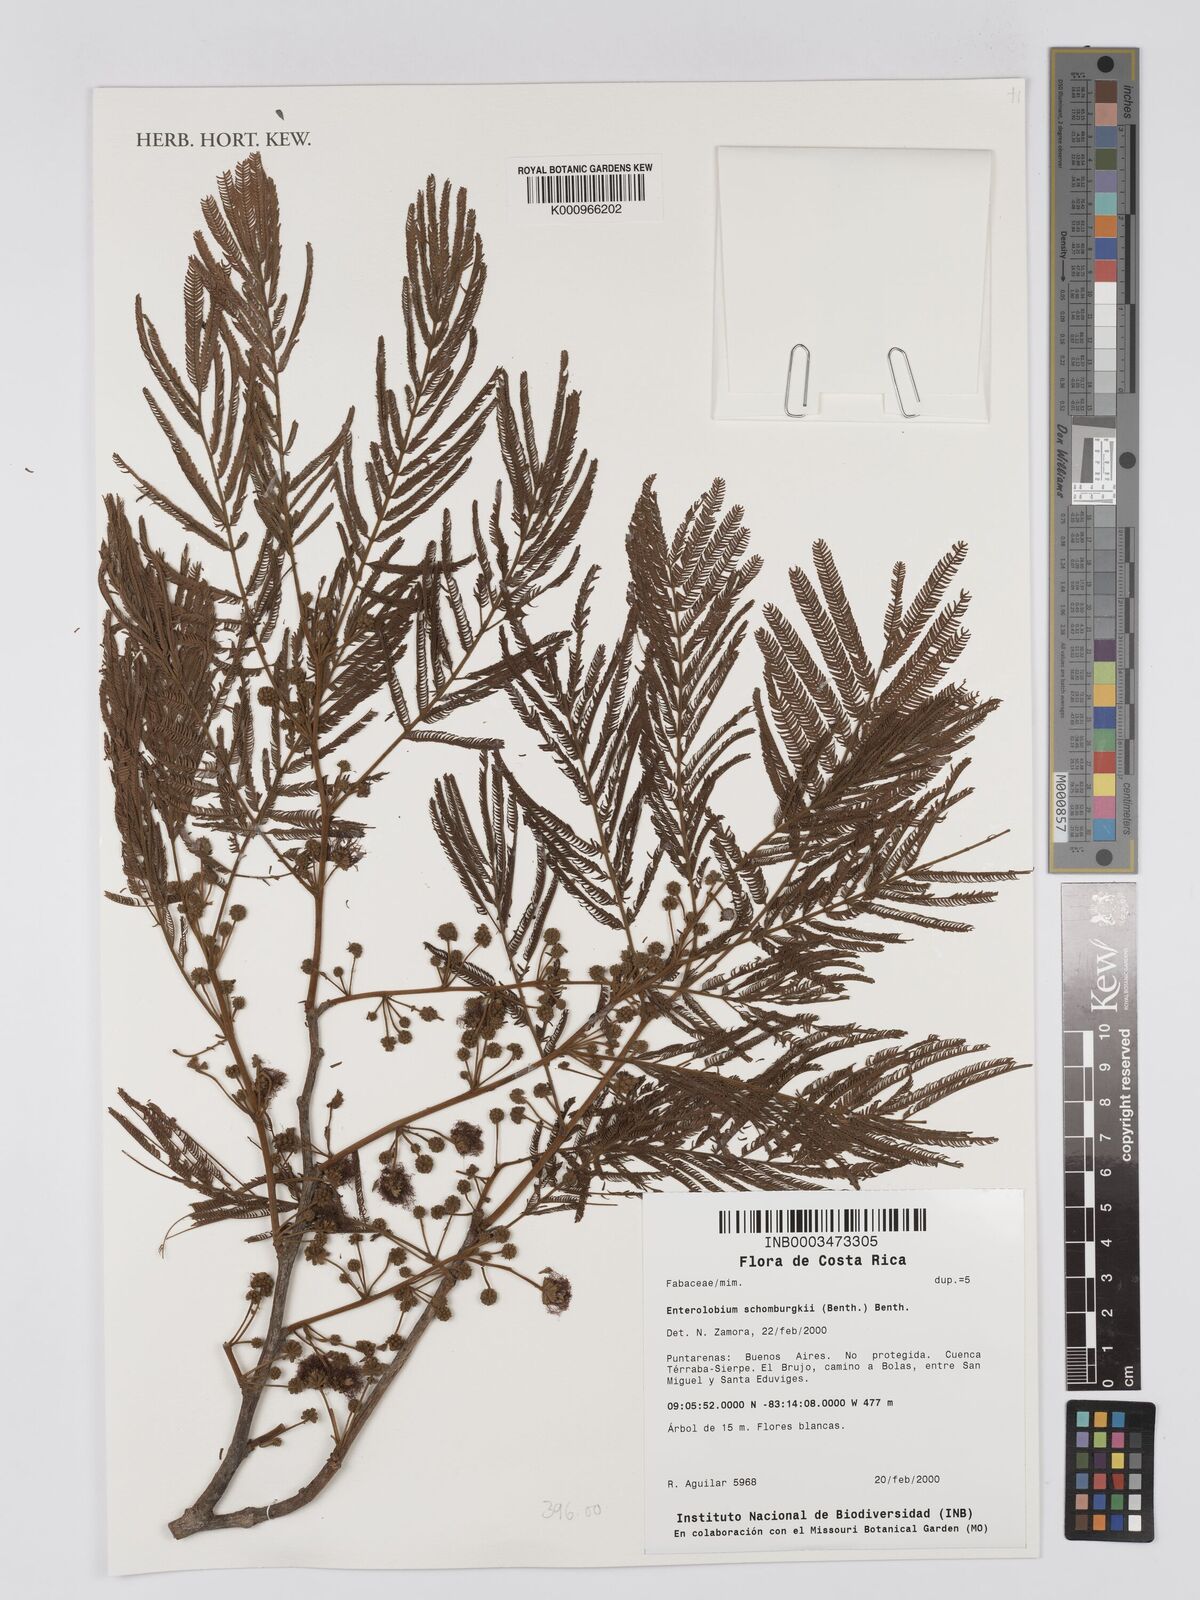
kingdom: Plantae
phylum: Tracheophyta
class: Magnoliopsida
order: Fabales
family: Fabaceae
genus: Enterolobium
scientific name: Enterolobium schomburgkii
